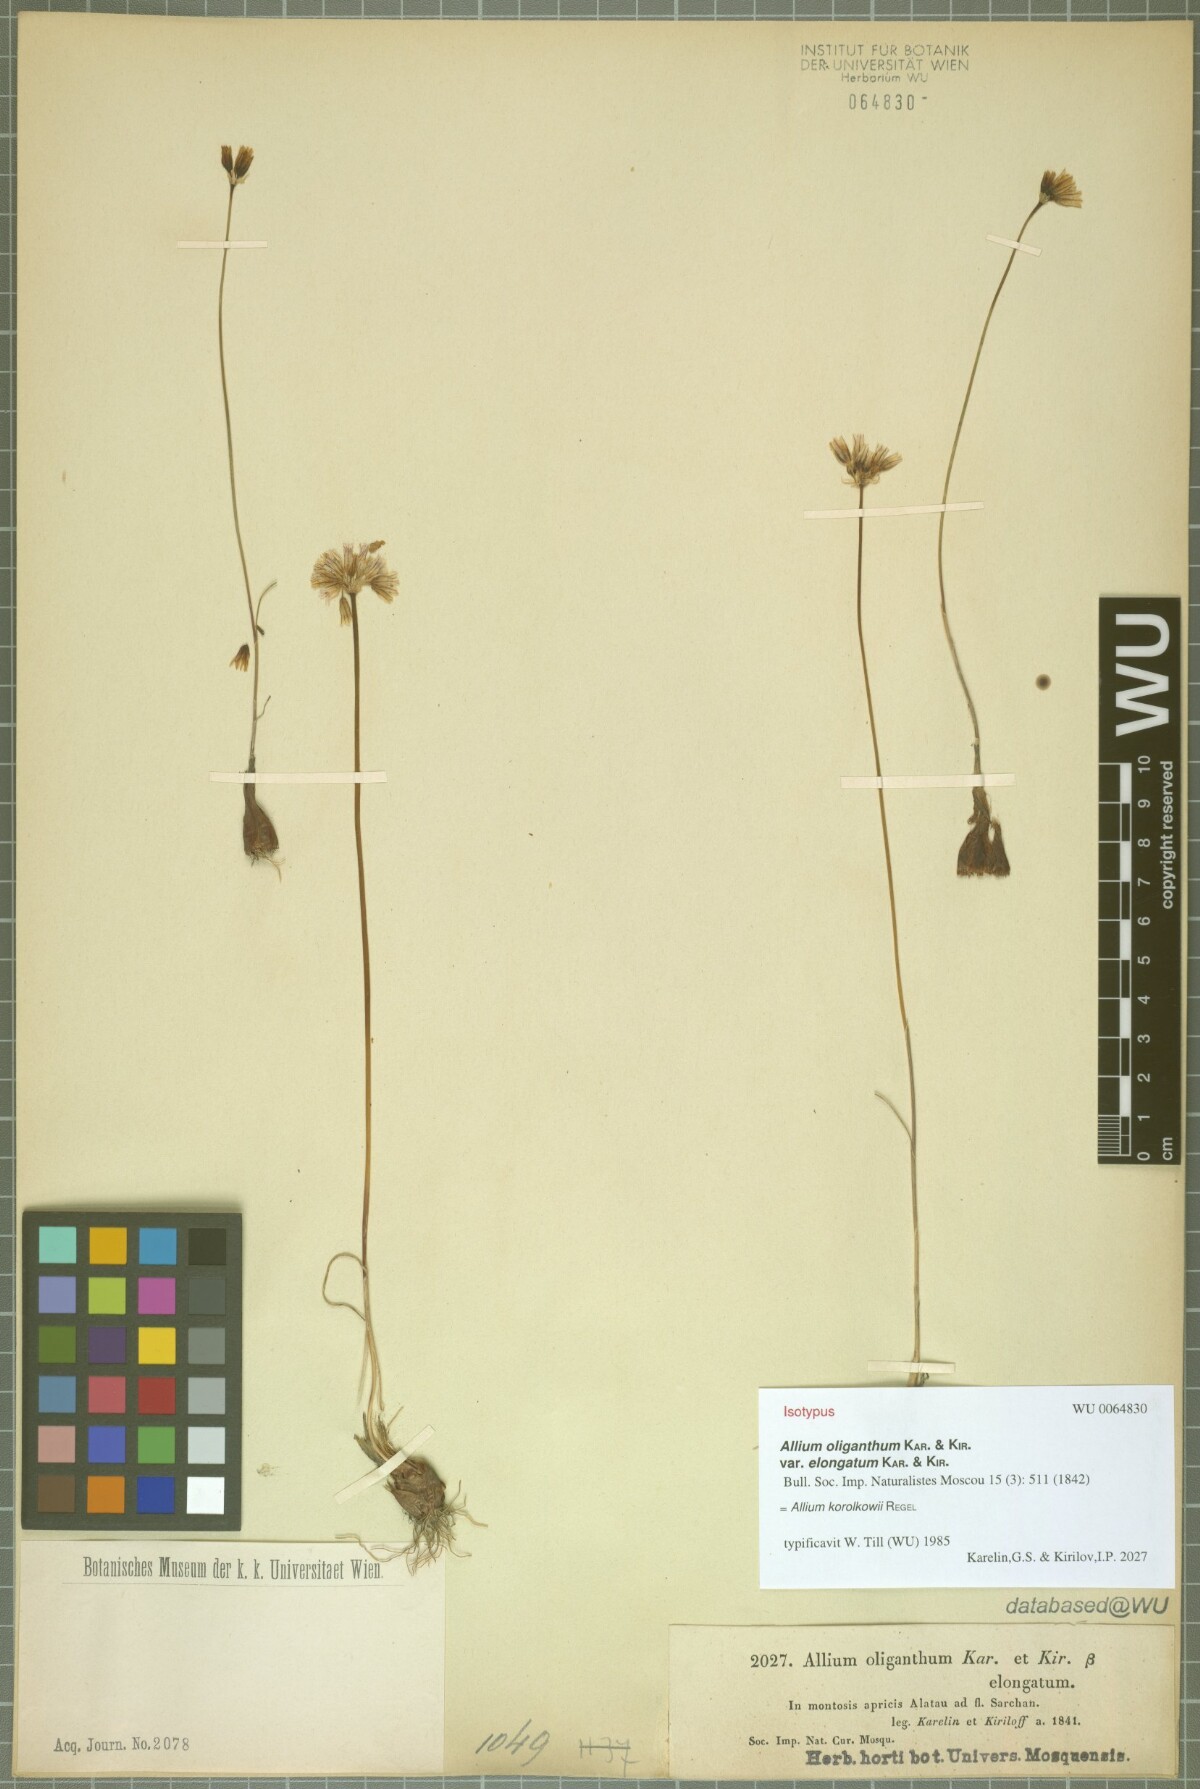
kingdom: Plantae
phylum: Tracheophyta
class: Liliopsida
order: Asparagales
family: Amaryllidaceae
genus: Allium
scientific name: Allium korolkowii
